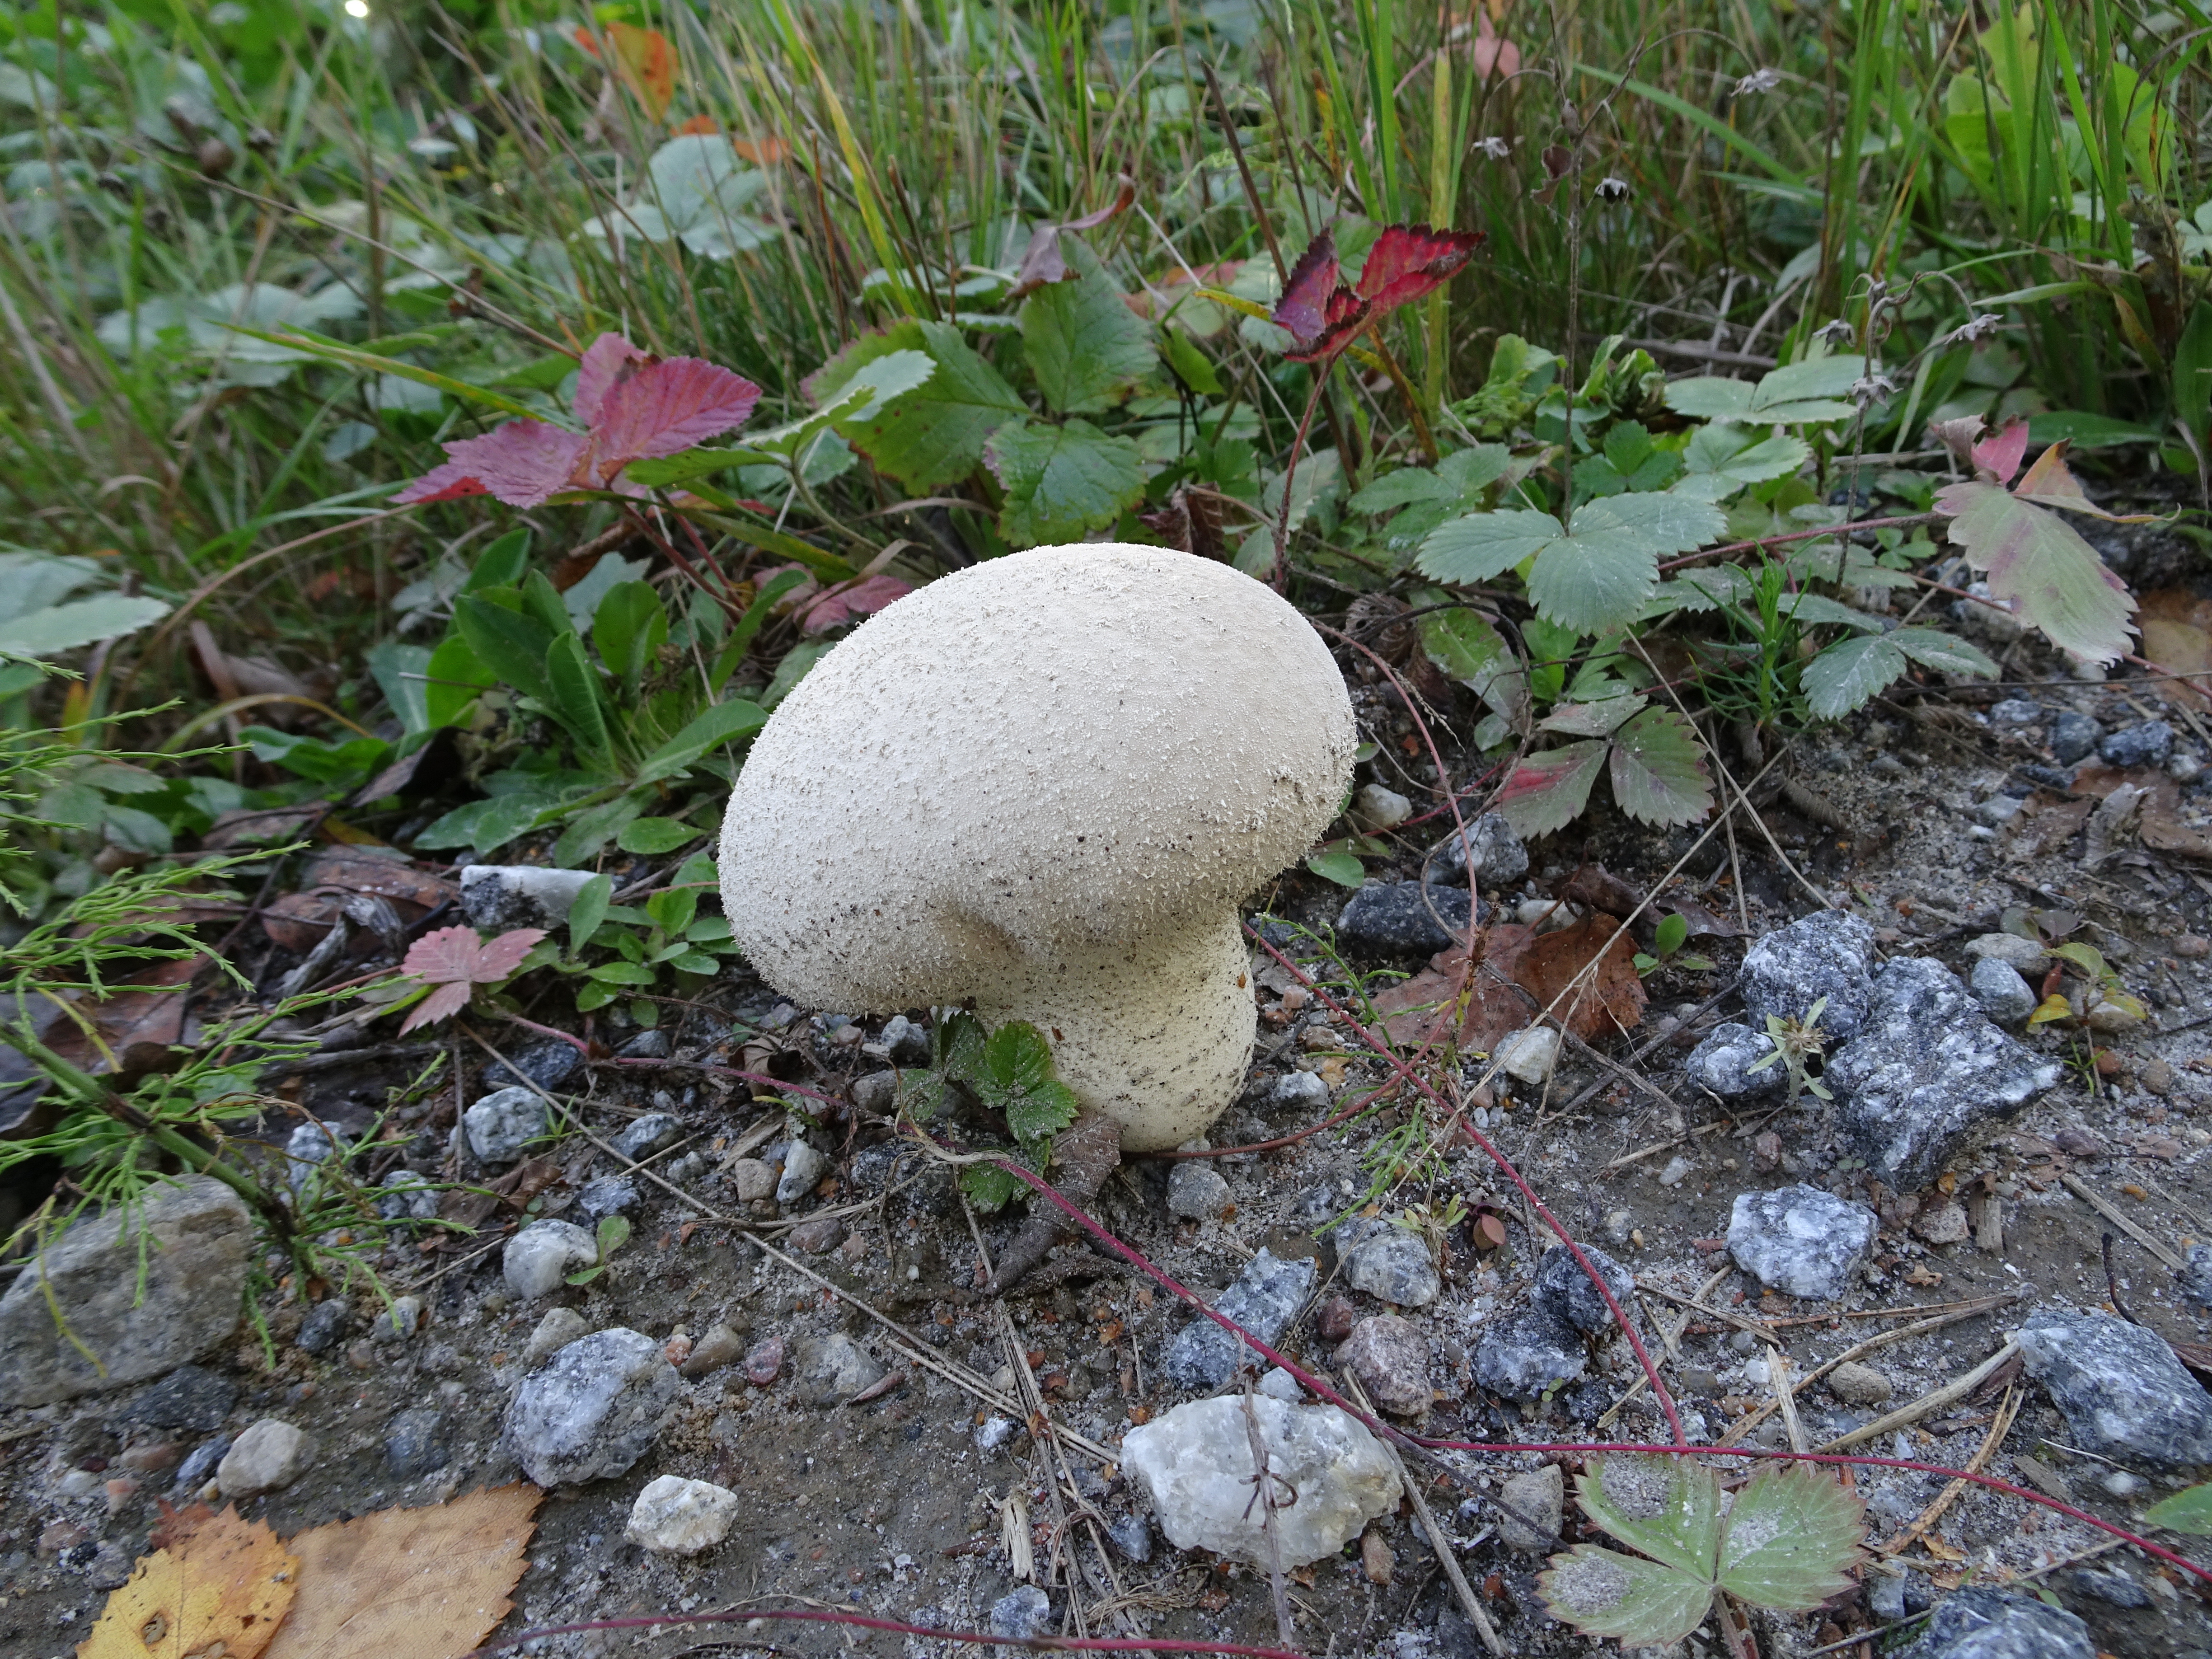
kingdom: Fungi
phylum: Basidiomycota
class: Agaricomycetes
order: Agaricales
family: Agaricaceae
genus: Lycoperdon
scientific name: Lycoperdon excipuliforme
